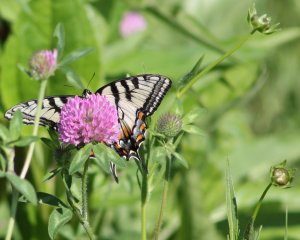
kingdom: Animalia
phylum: Arthropoda
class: Insecta
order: Lepidoptera
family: Papilionidae
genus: Pterourus
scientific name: Pterourus canadensis
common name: Canadian Tiger Swallowtail
